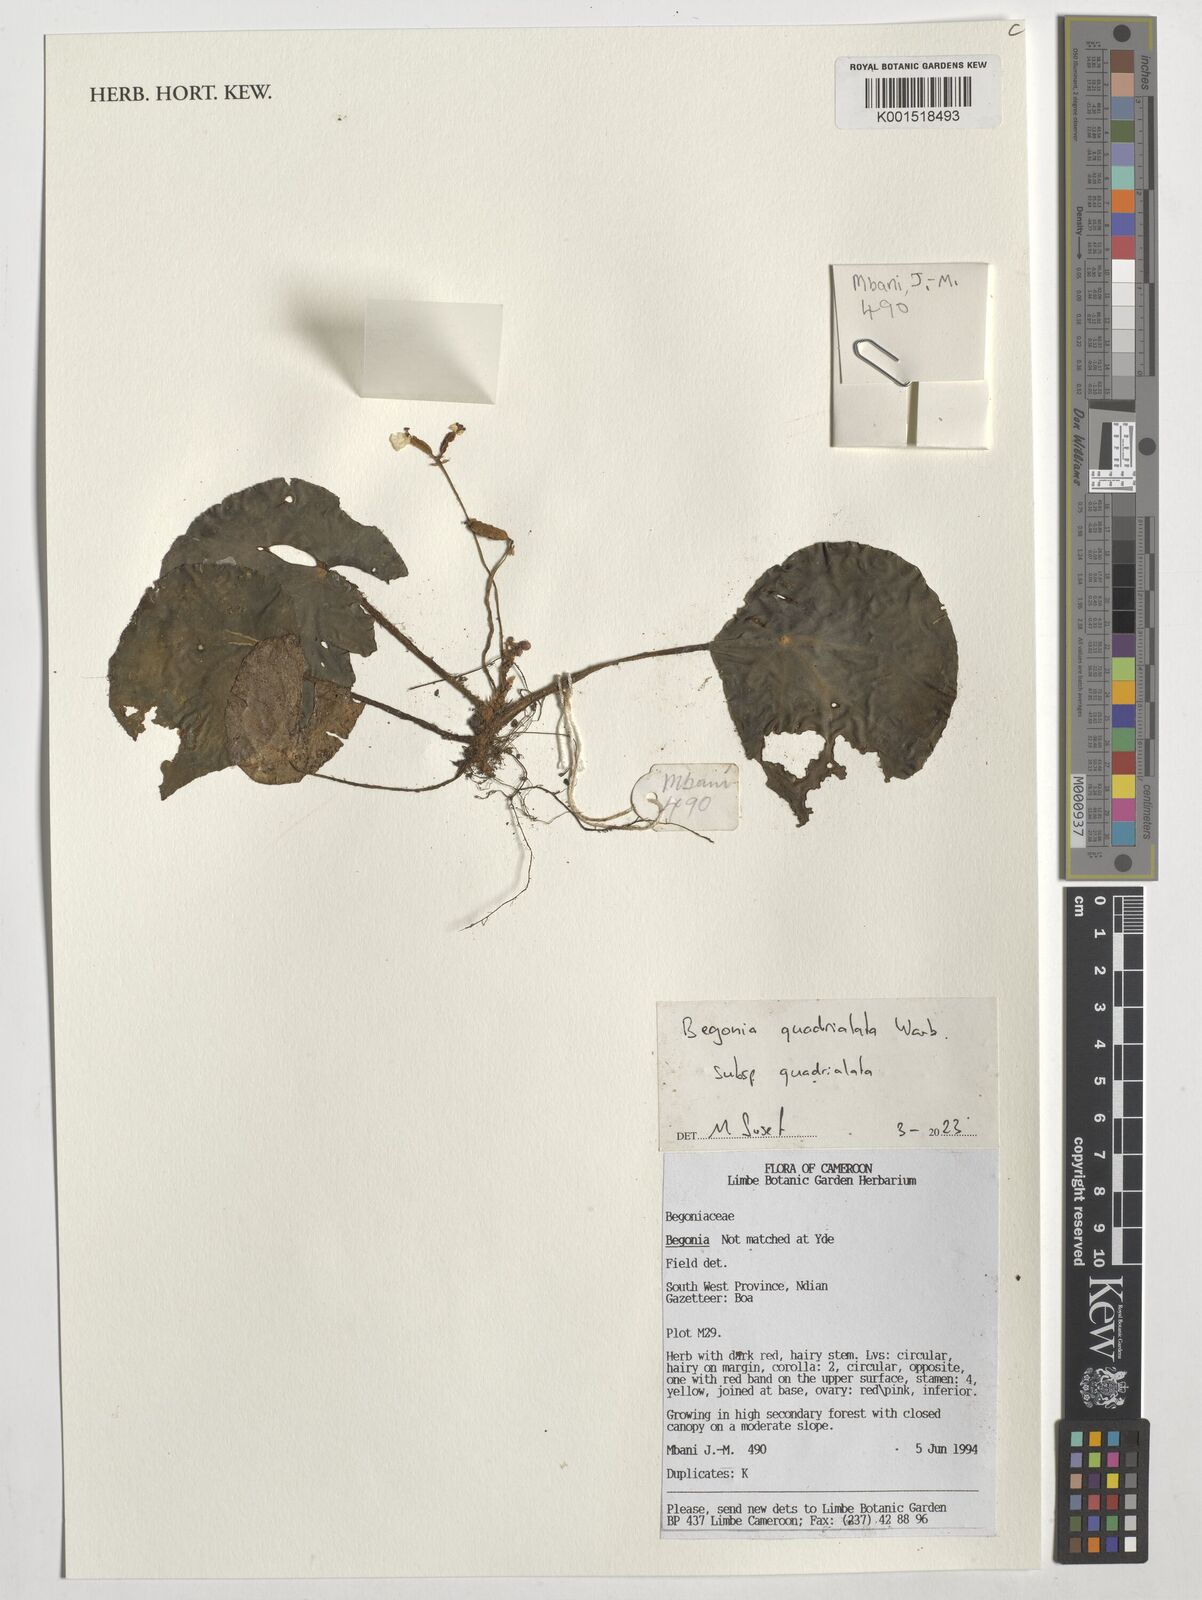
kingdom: Plantae
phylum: Tracheophyta
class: Magnoliopsida
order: Cucurbitales
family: Begoniaceae
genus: Begonia
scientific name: Begonia quadrialata
